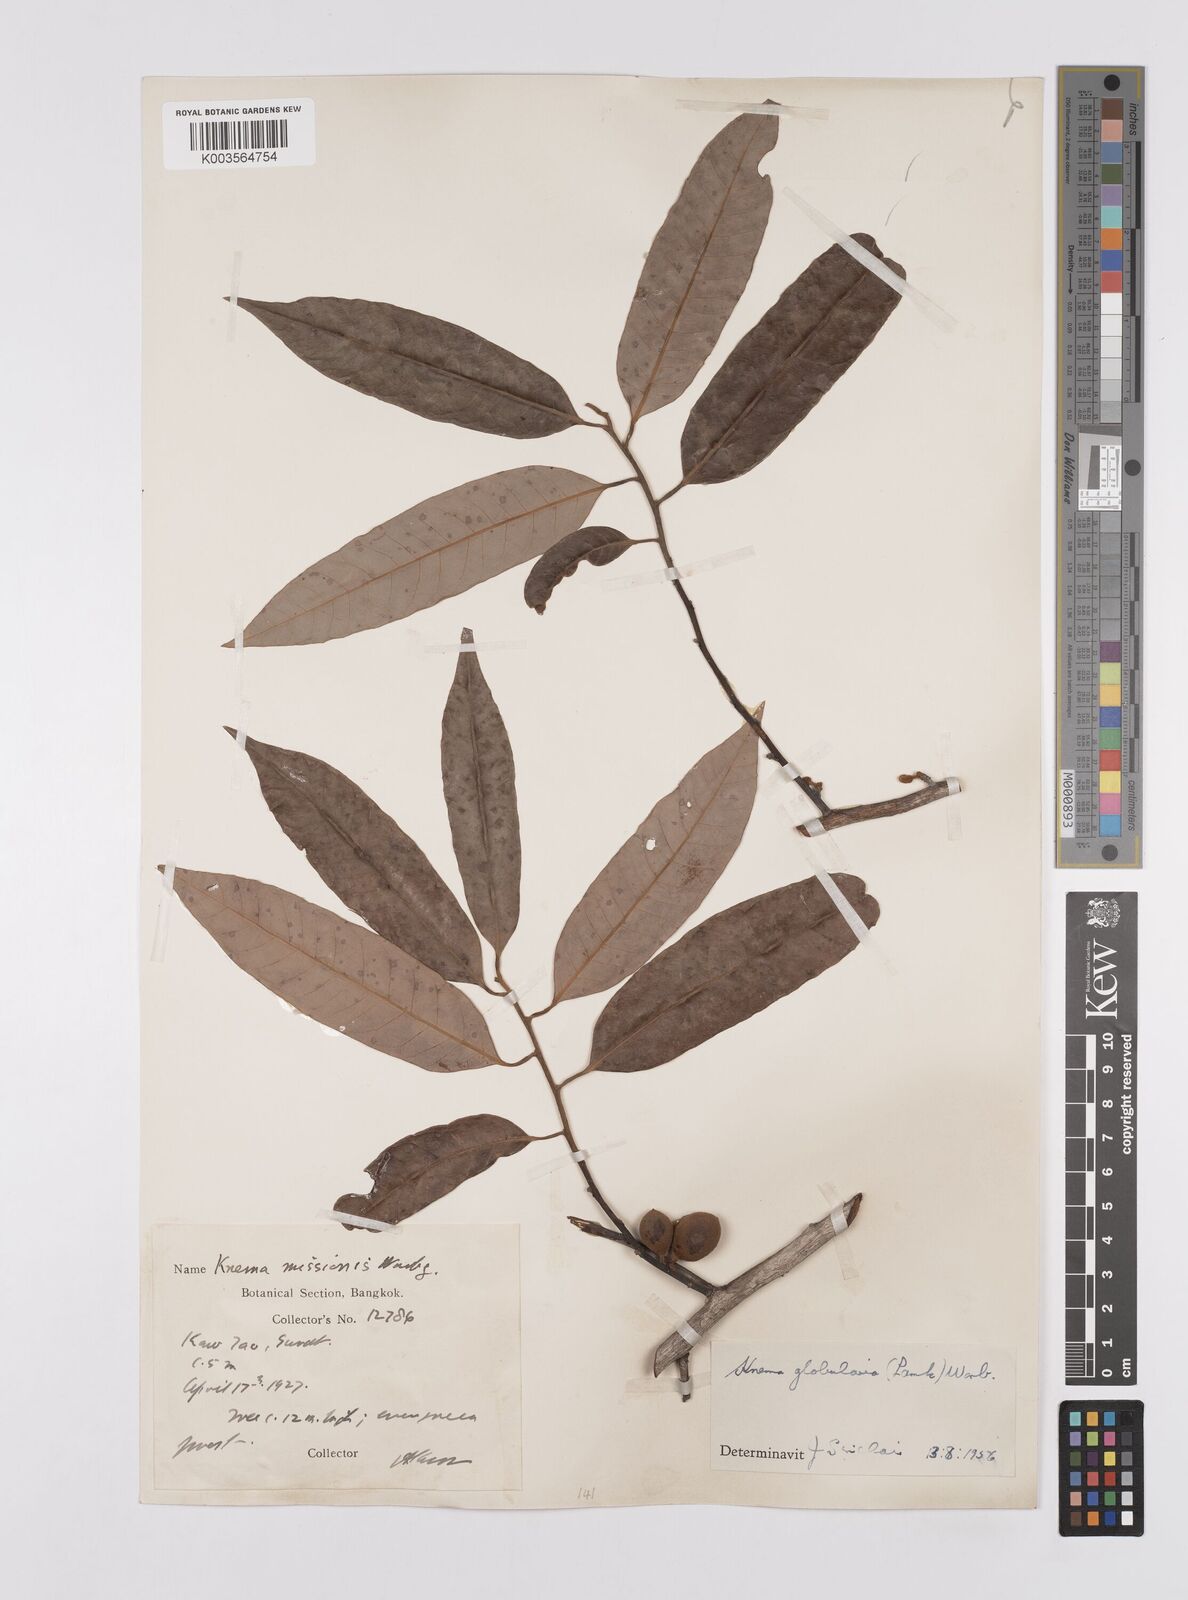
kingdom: Plantae
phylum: Tracheophyta
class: Magnoliopsida
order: Magnoliales
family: Myristicaceae
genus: Knema
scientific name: Knema globularia
